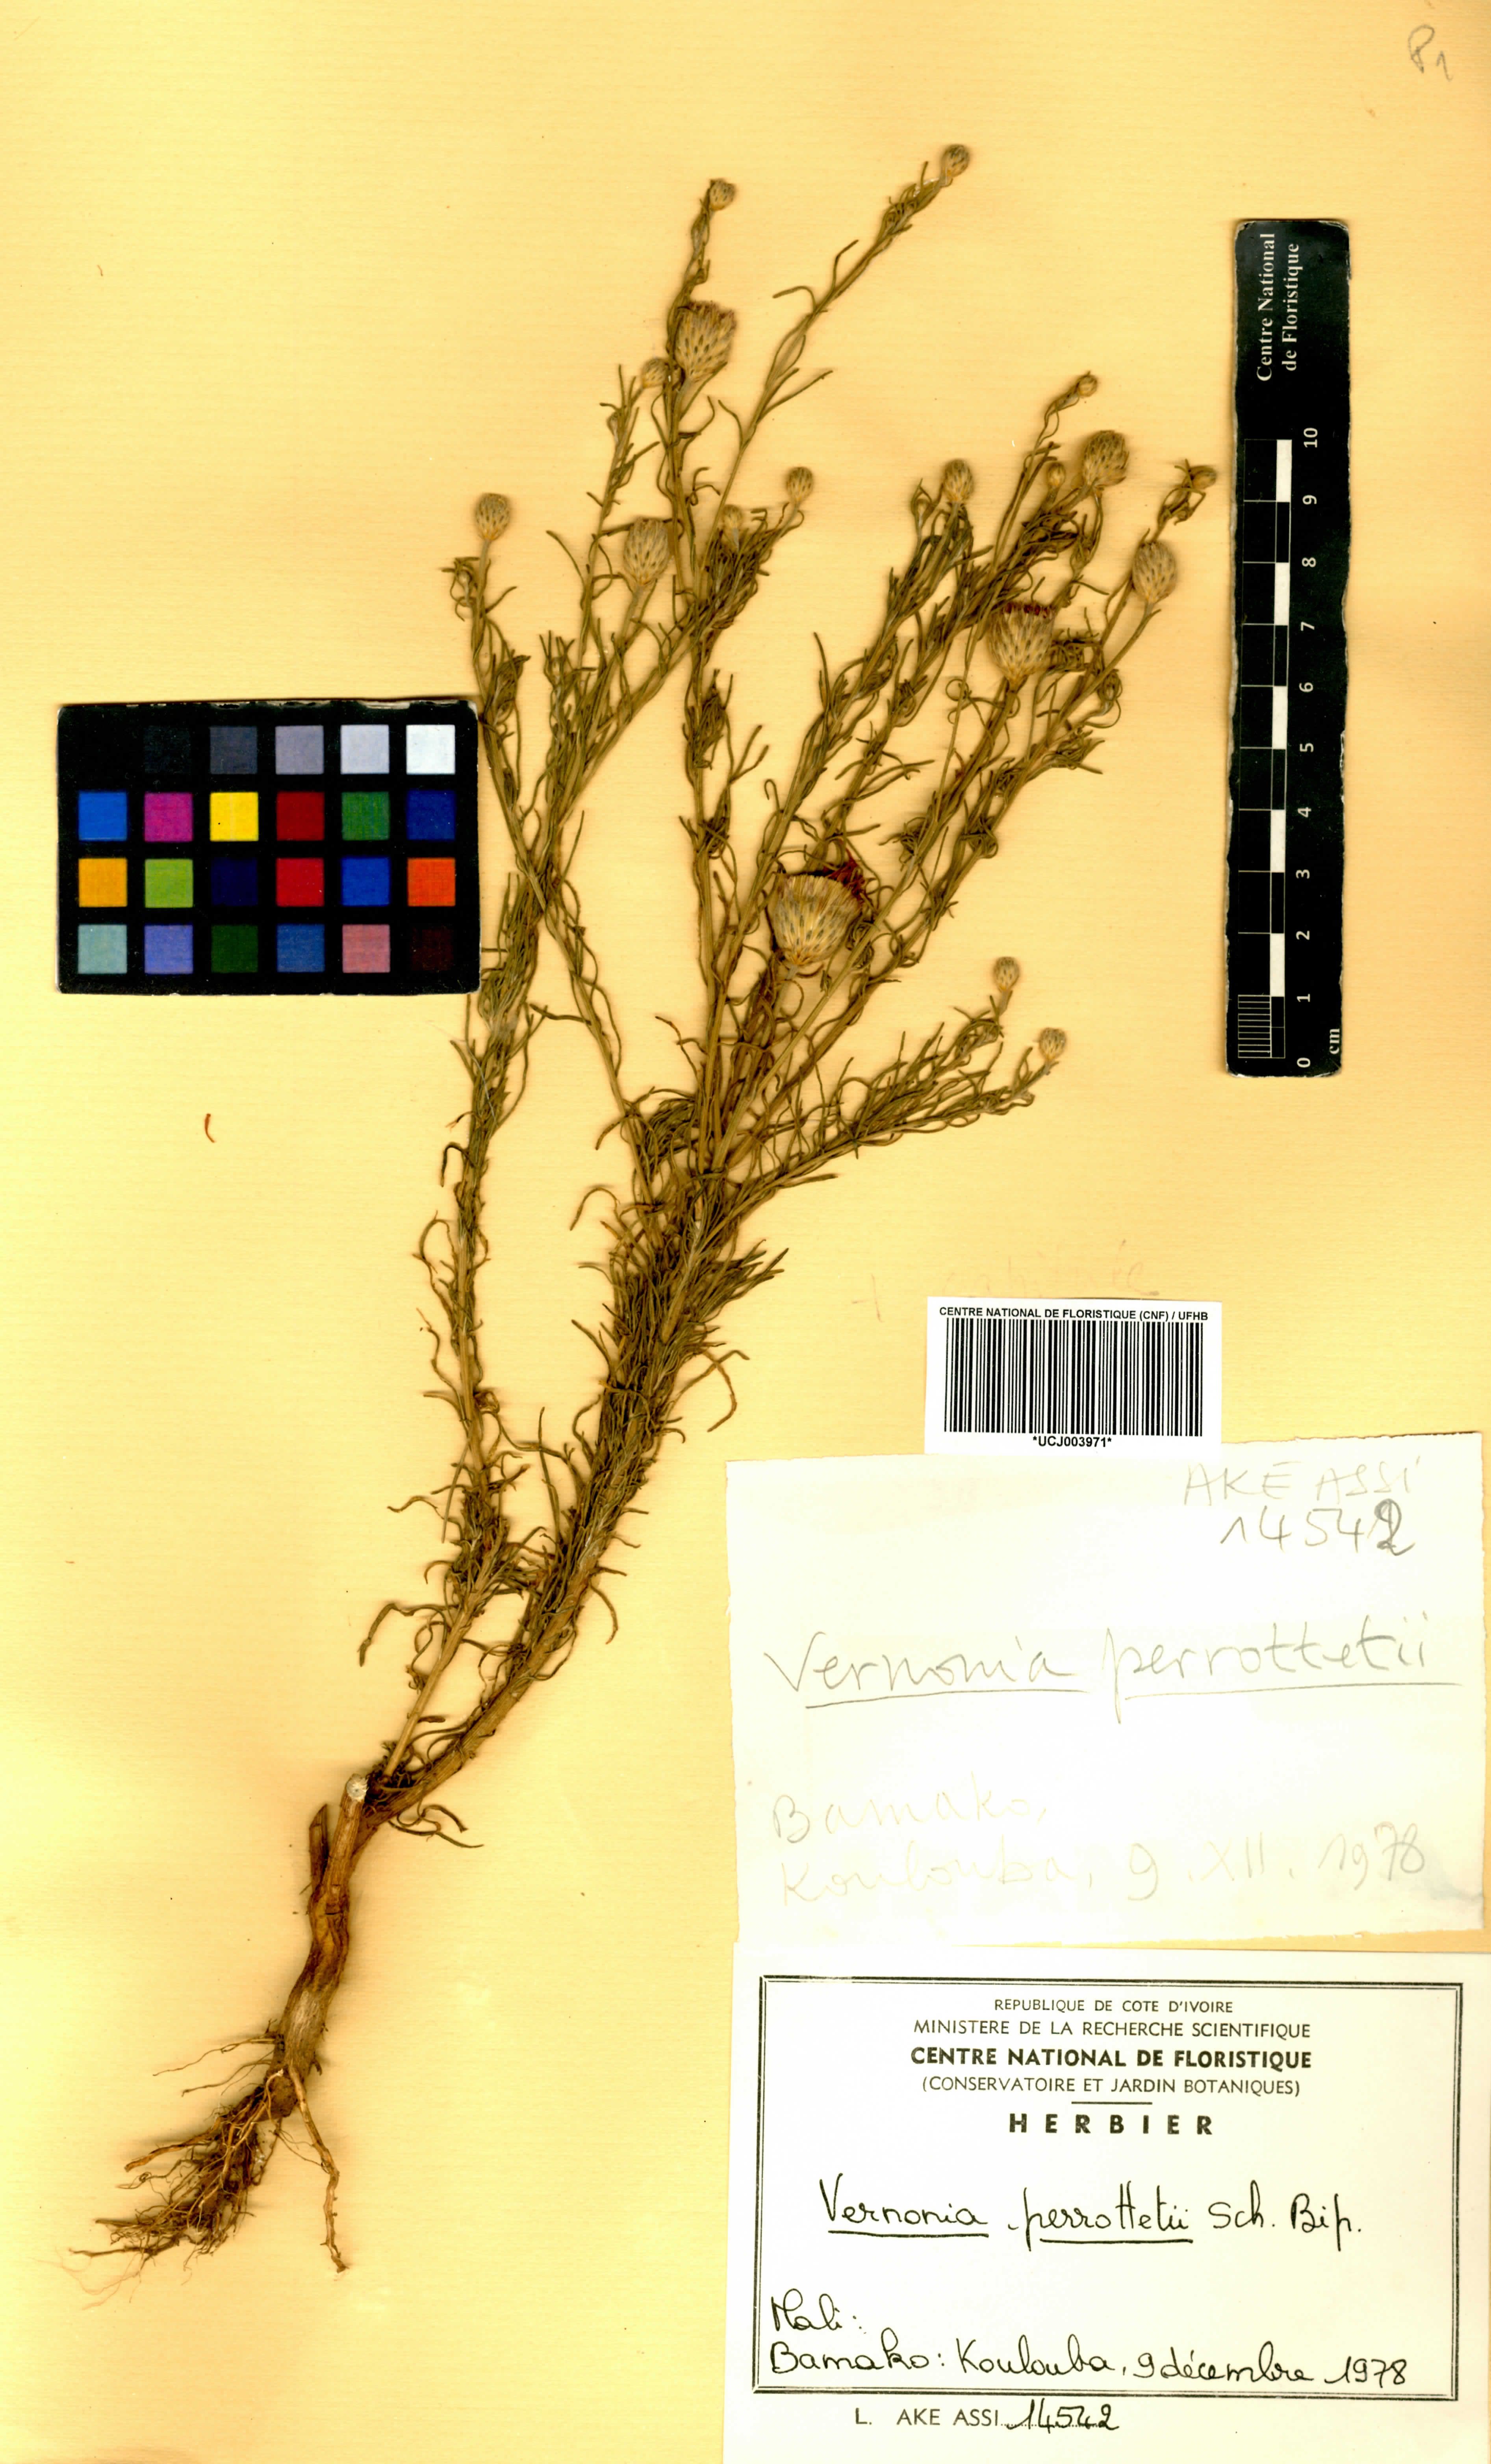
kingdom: Plantae
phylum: Tracheophyta
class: Magnoliopsida
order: Asterales
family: Asteraceae
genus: Crystallopollen
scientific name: Crystallopollen serratuloides
